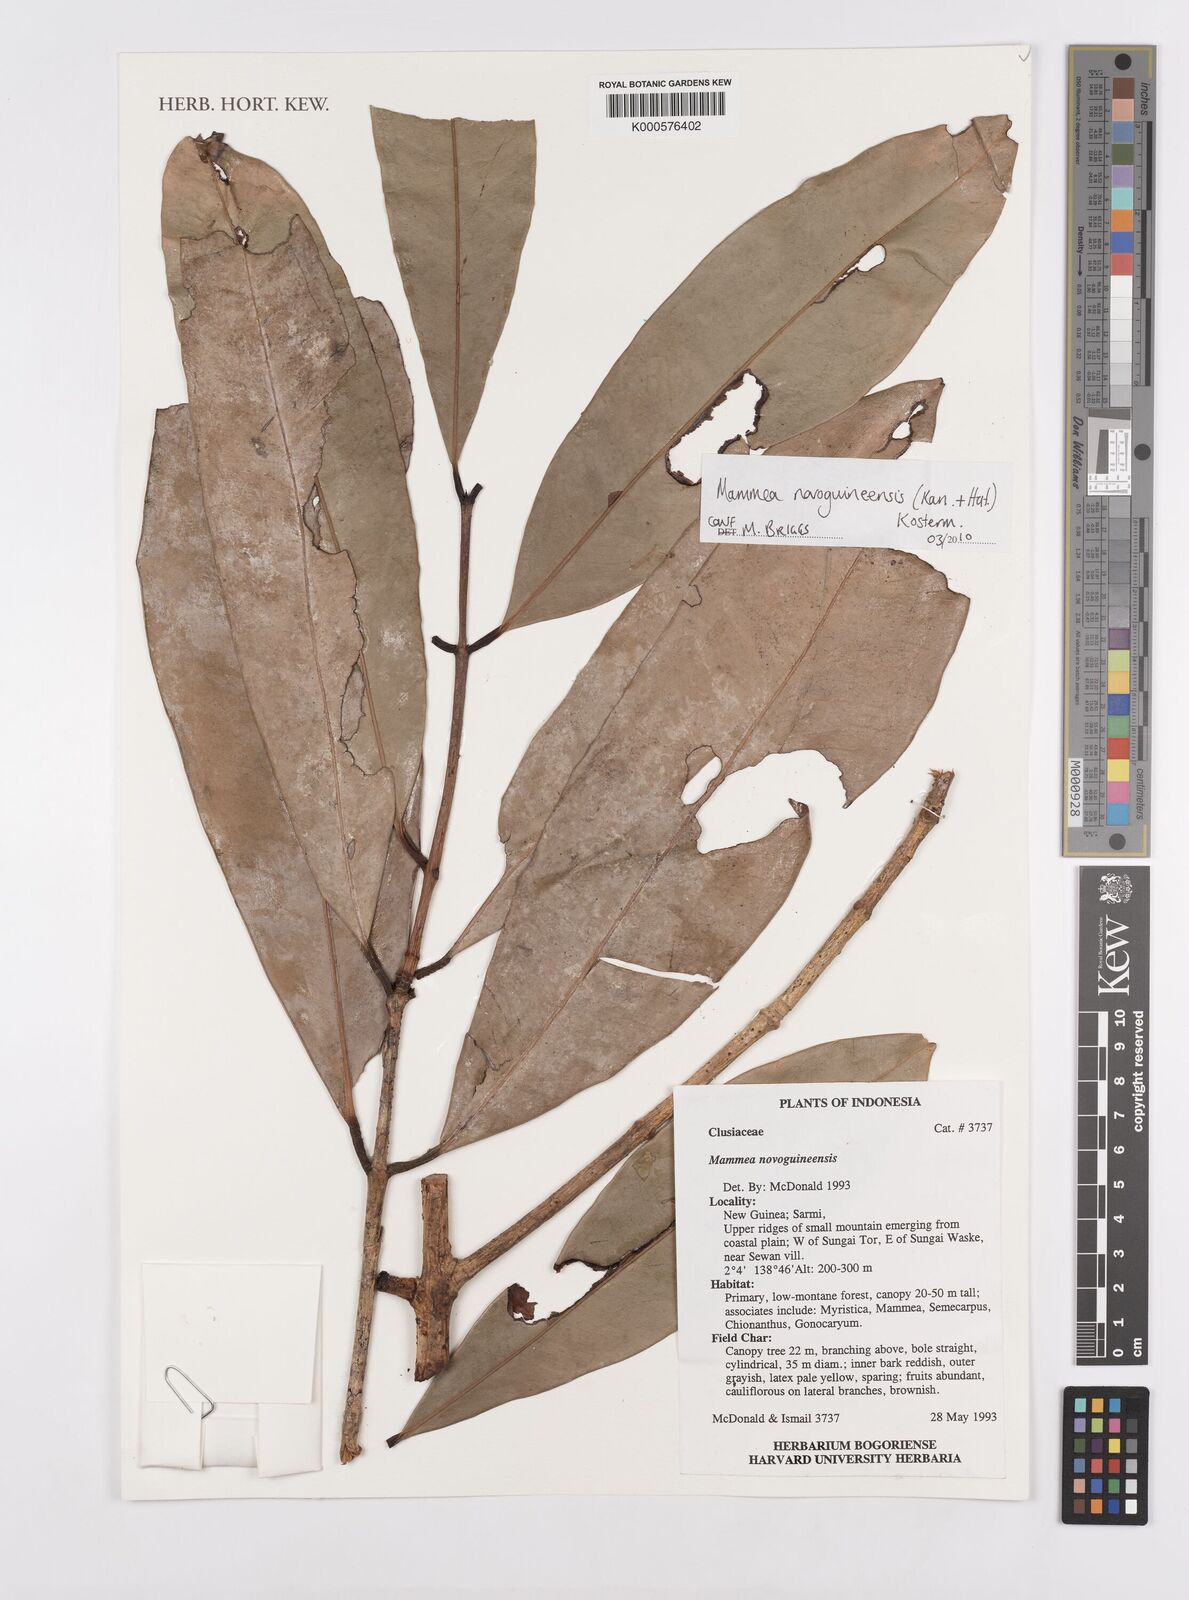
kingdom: Plantae
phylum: Tracheophyta
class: Magnoliopsida
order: Malpighiales
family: Calophyllaceae
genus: Mammea
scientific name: Mammea novoguineensis
